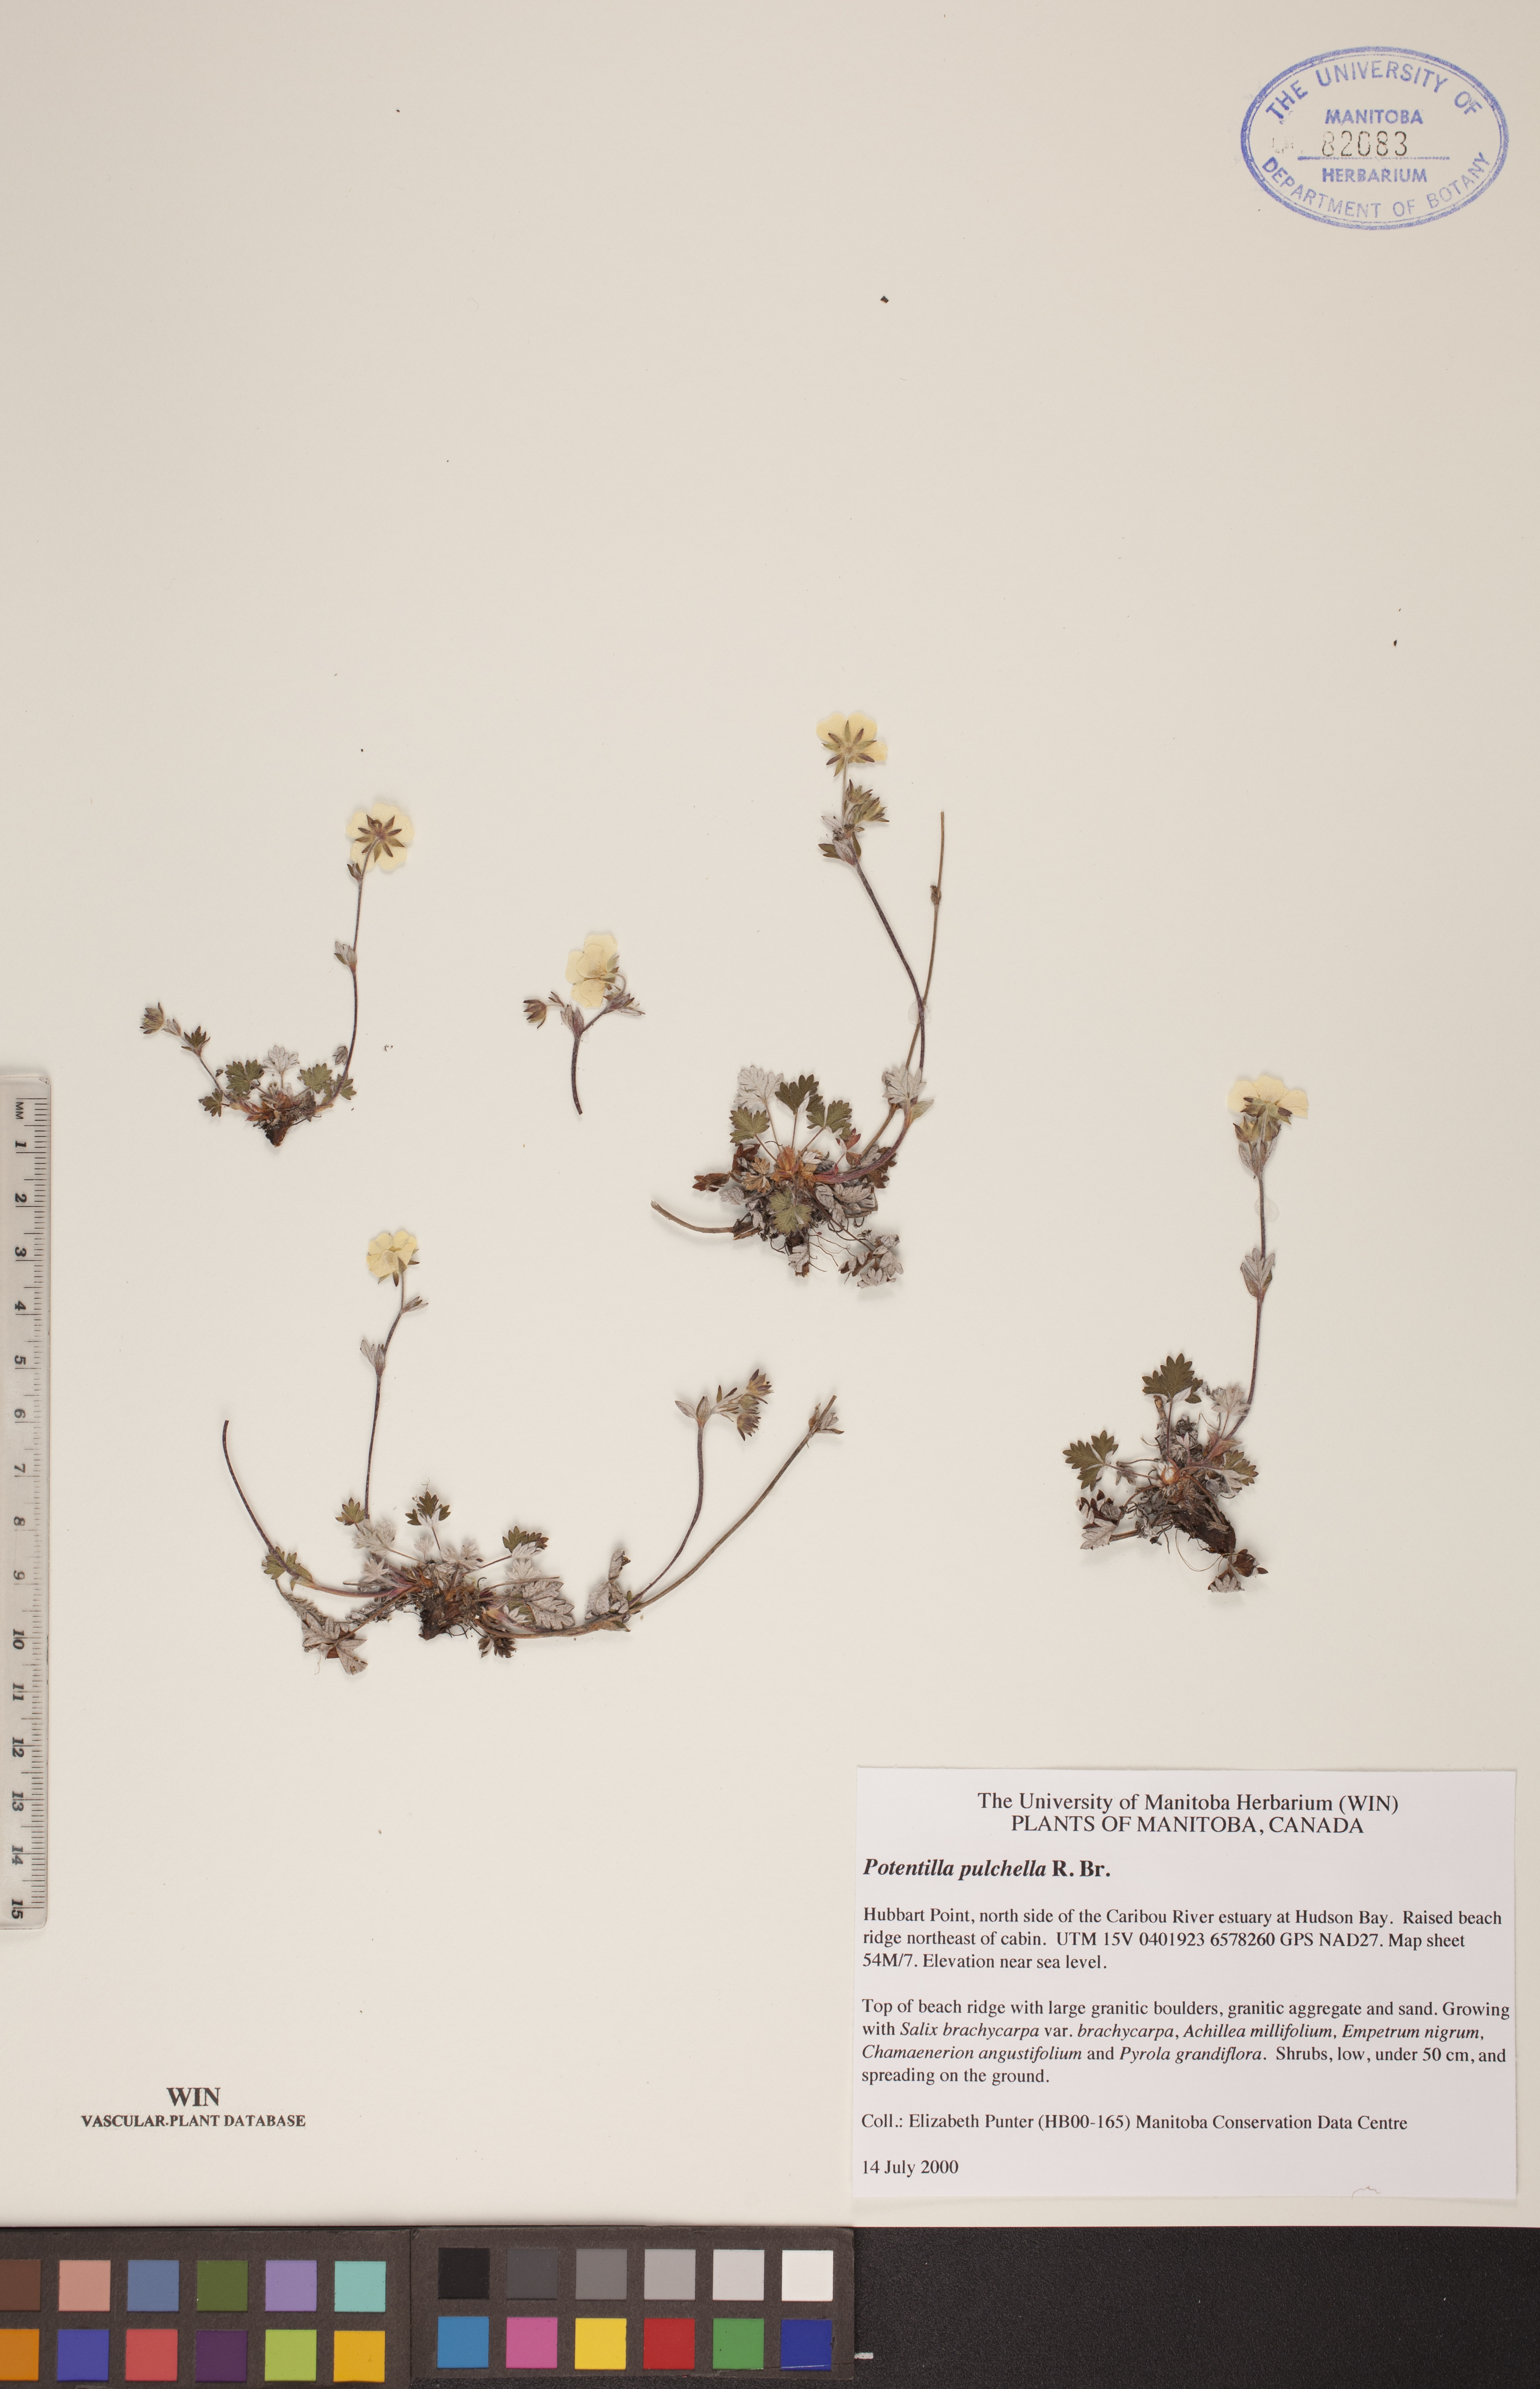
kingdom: Plantae
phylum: Tracheophyta
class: Magnoliopsida
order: Rosales
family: Rosaceae
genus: Potentilla
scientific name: Potentilla pulchella
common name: Pretty cinquefoil
